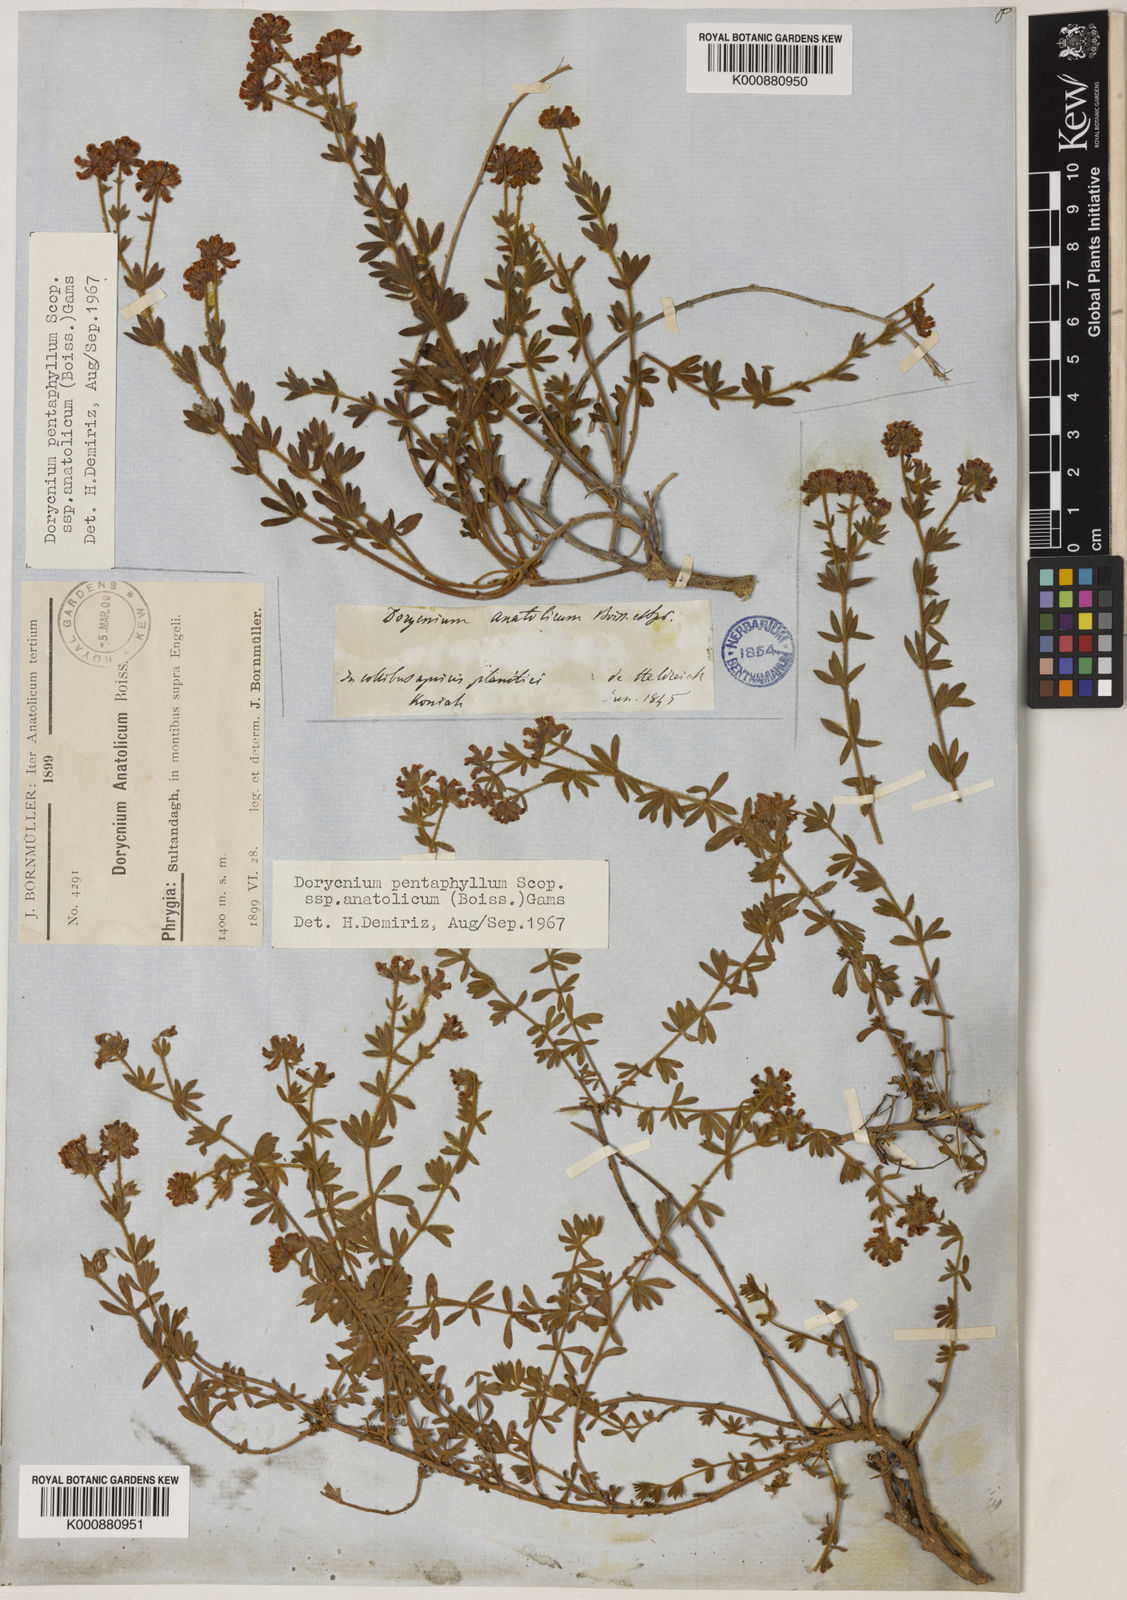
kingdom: Plantae
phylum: Tracheophyta
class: Magnoliopsida
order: Fabales
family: Fabaceae
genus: Lotus
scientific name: Lotus Dorycnium anatolicum
